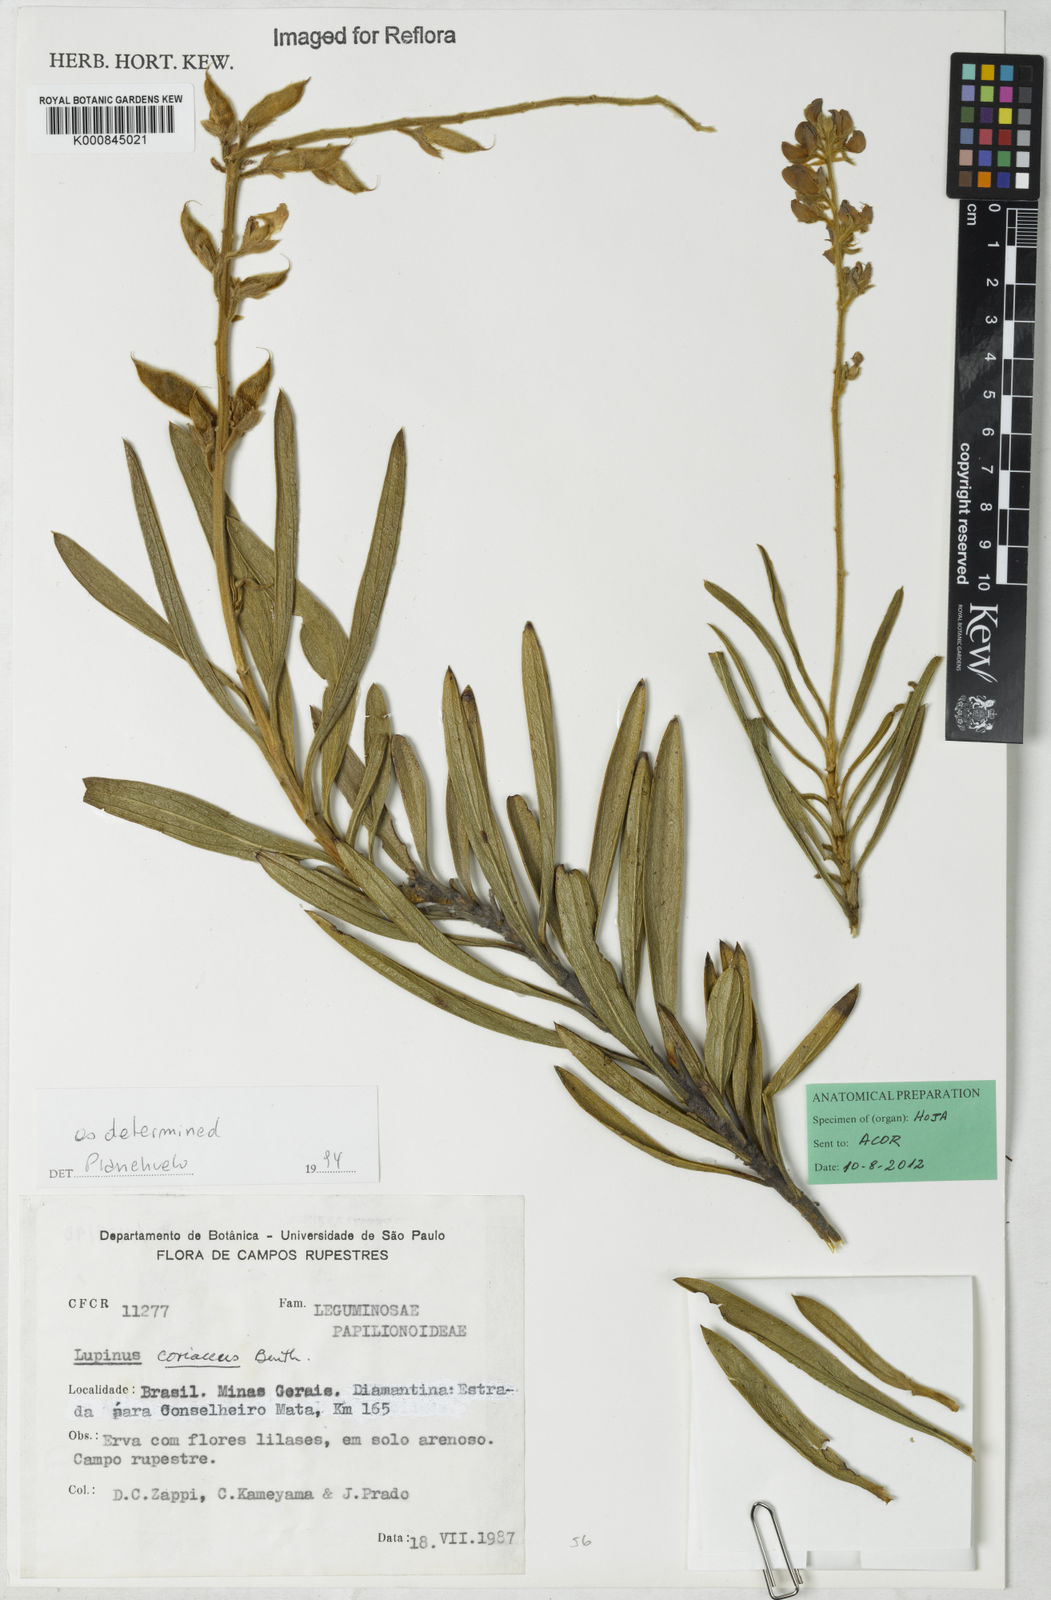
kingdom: Plantae
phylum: Tracheophyta
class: Magnoliopsida
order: Fabales
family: Fabaceae
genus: Lupinus
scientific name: Lupinus coriaceus
